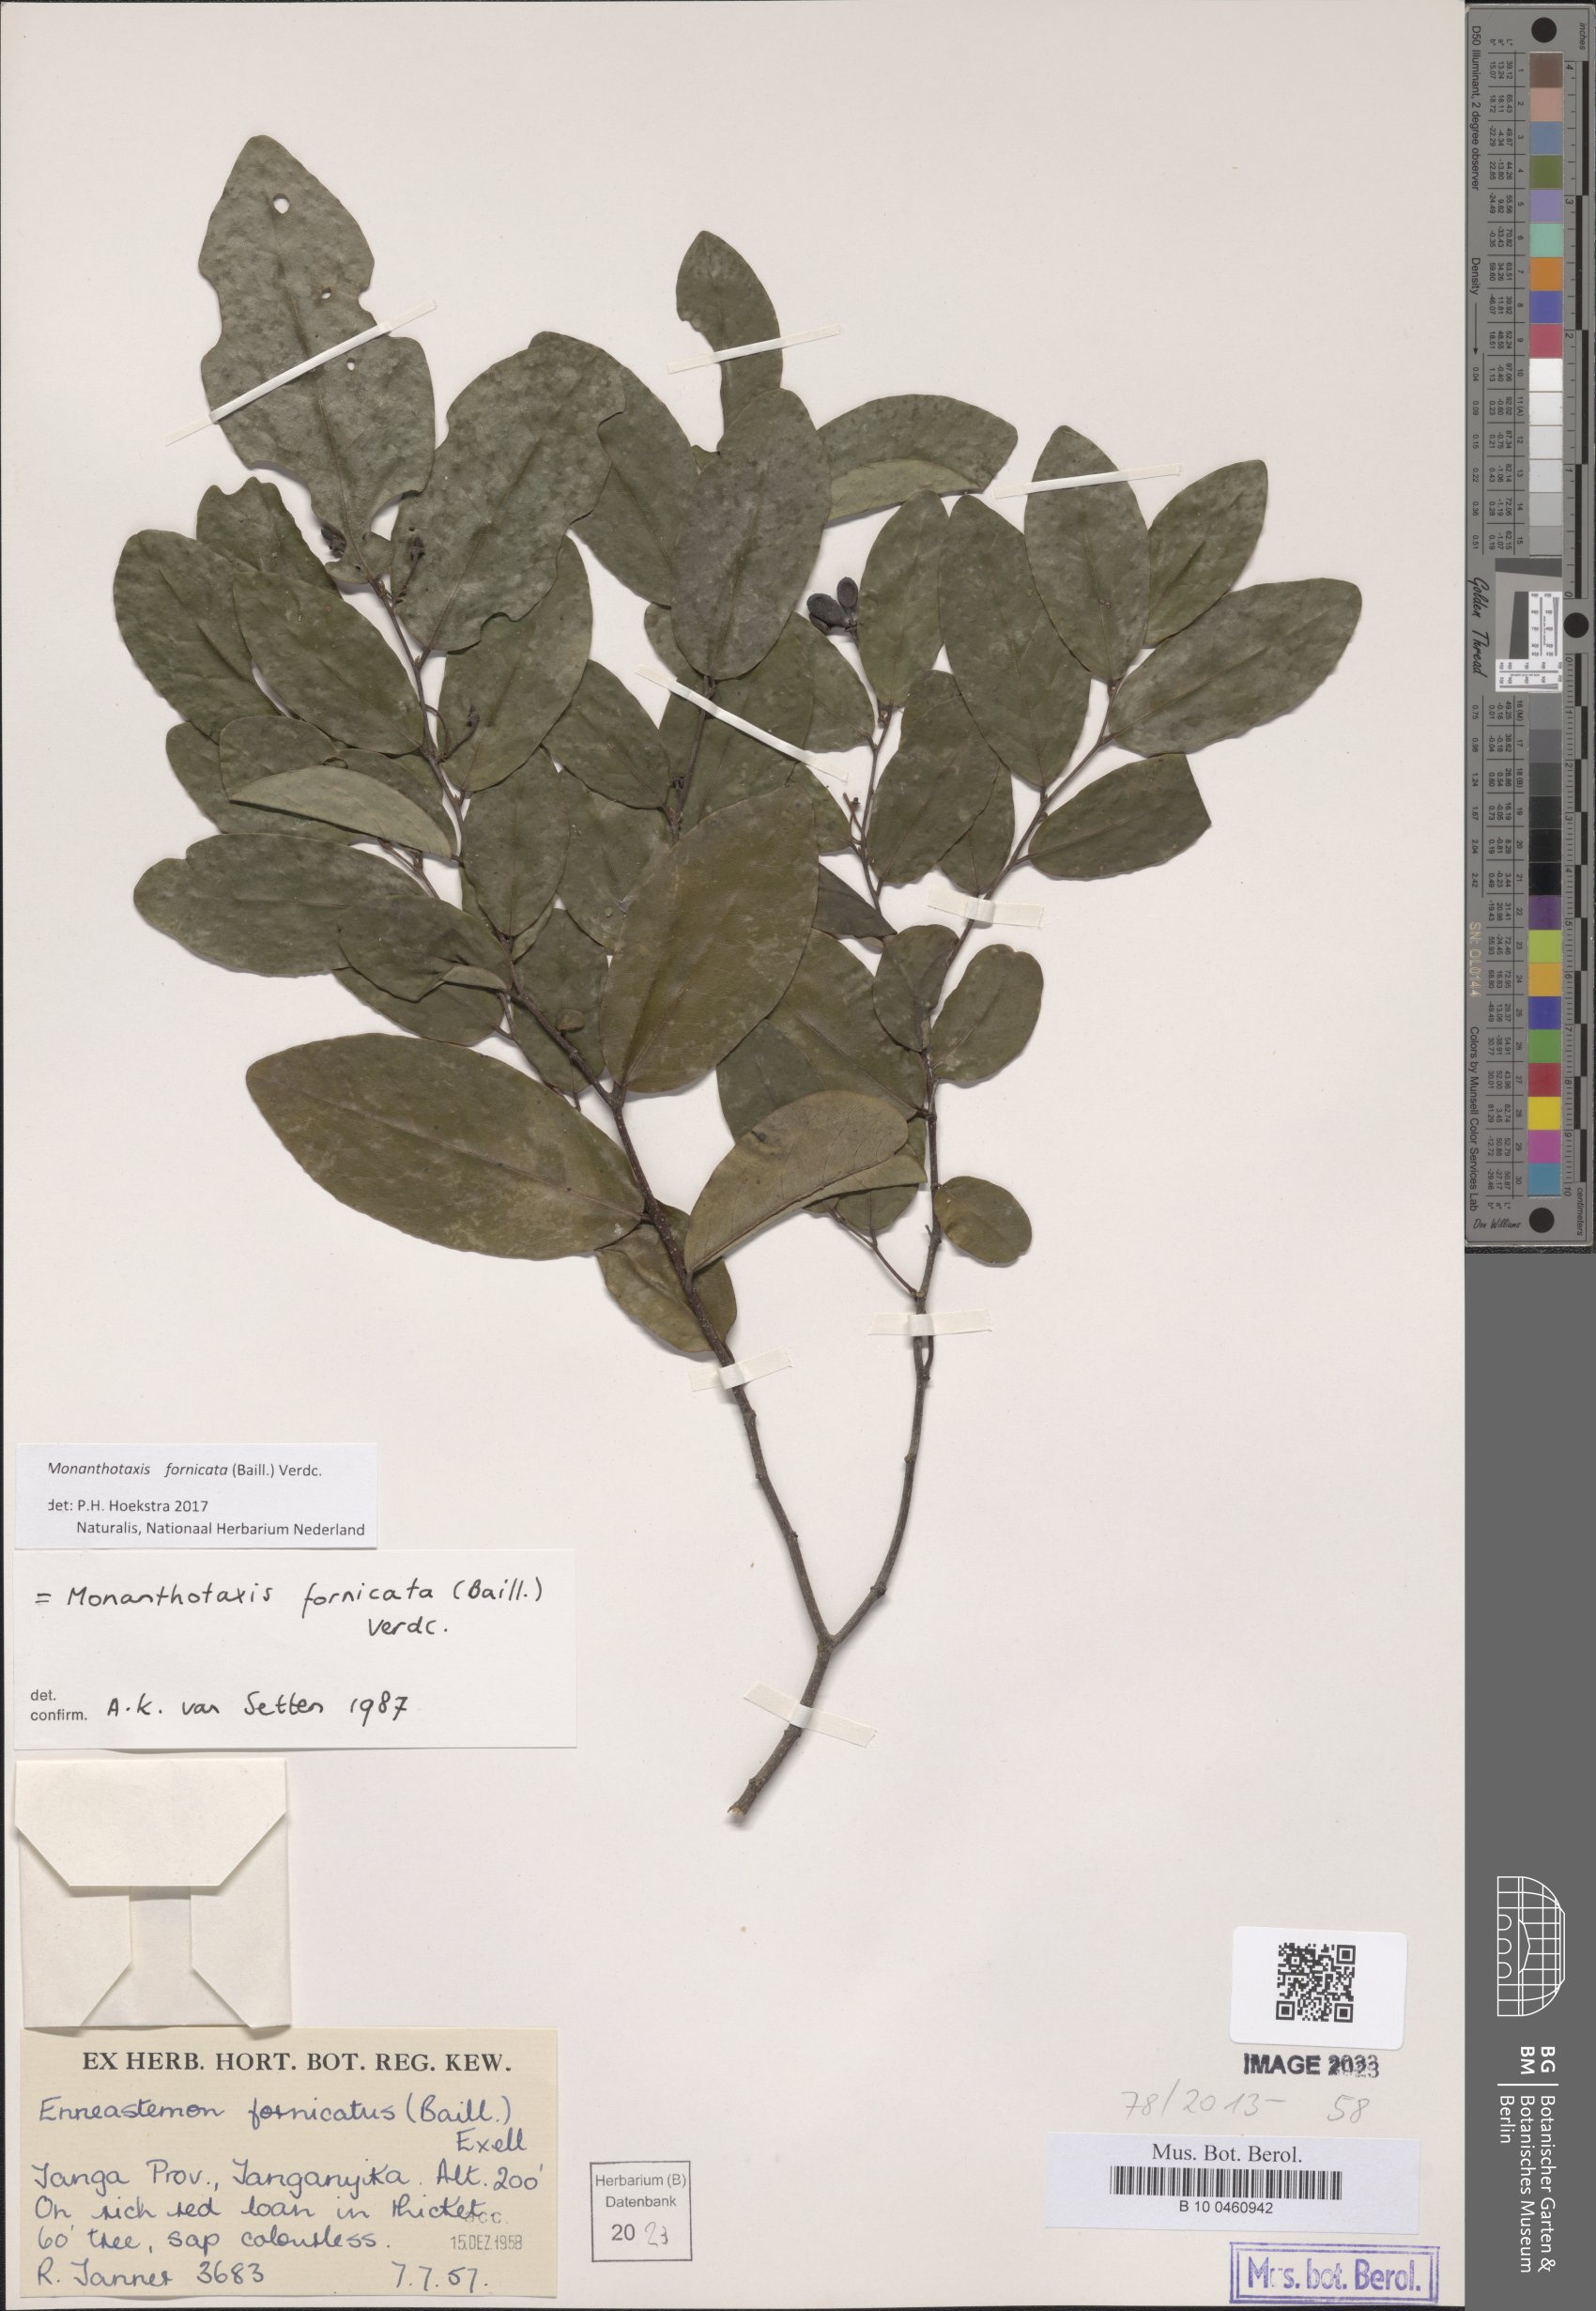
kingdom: Plantae
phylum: Tracheophyta
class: Magnoliopsida
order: Magnoliales
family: Annonaceae
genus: Monanthotaxis
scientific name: Monanthotaxis fornicata
